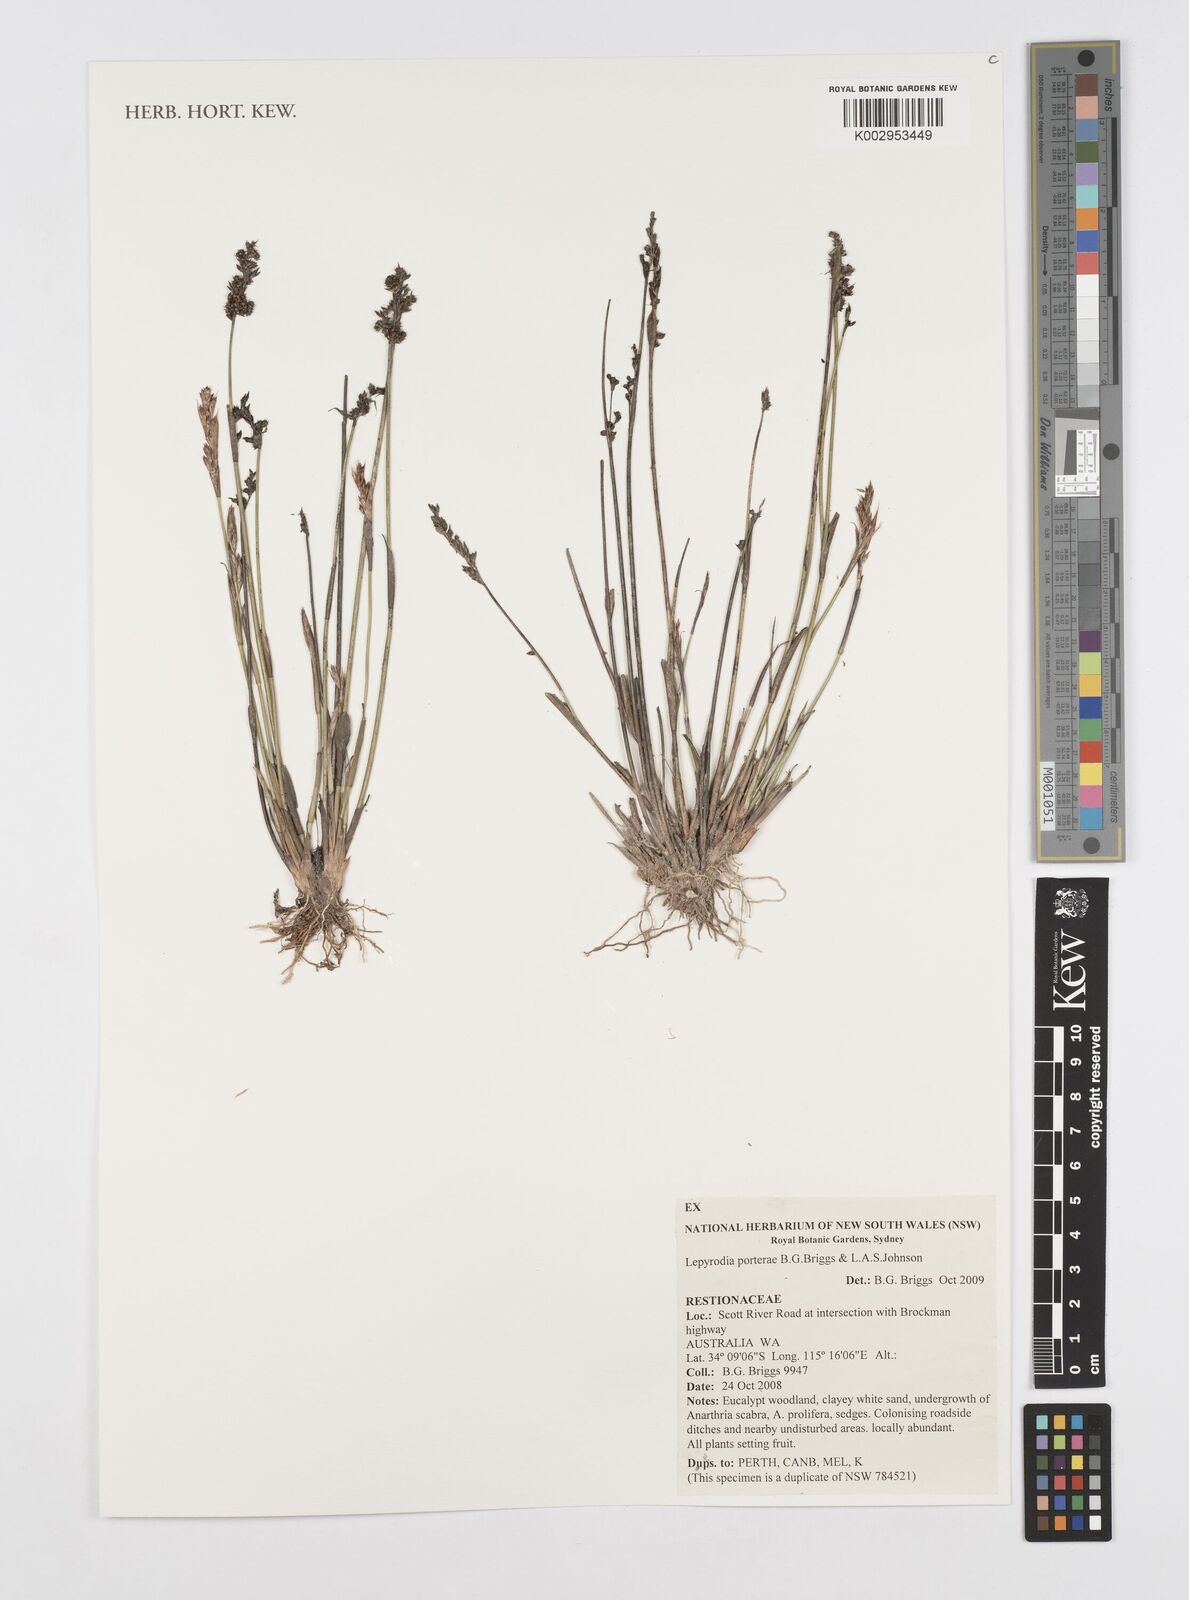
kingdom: Plantae
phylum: Tracheophyta
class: Liliopsida
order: Poales
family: Restionaceae
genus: Lepyrodia
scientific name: Lepyrodia porterae
